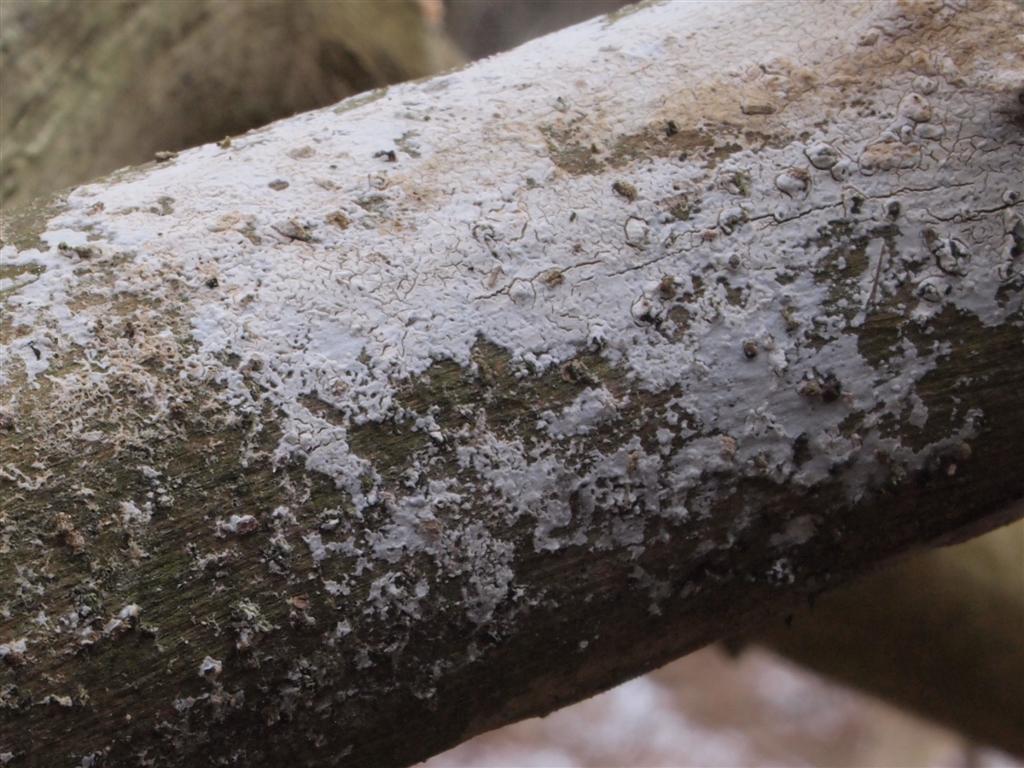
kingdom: Fungi
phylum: Basidiomycota
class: Agaricomycetes
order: Corticiales
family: Corticiaceae
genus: Lyomyces
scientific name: Lyomyces sambuci
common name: almindelig hyldehinde
